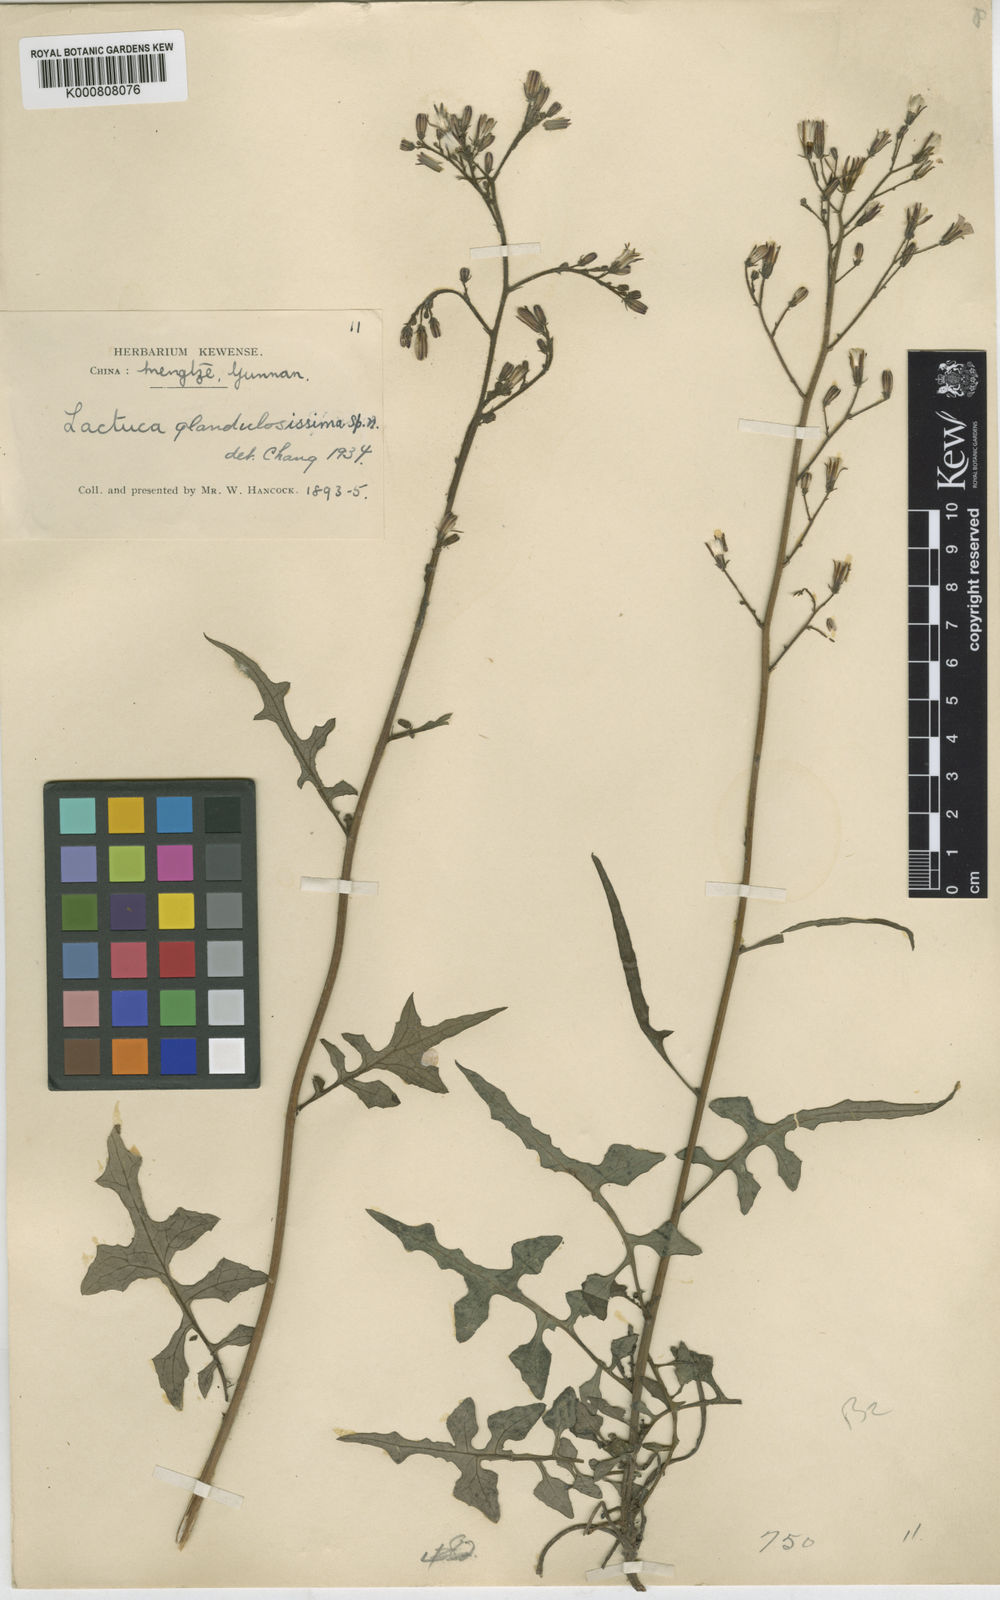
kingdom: Plantae
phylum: Tracheophyta
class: Magnoliopsida
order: Asterales
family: Asteraceae
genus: Paraprenanthes
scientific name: Paraprenanthes
